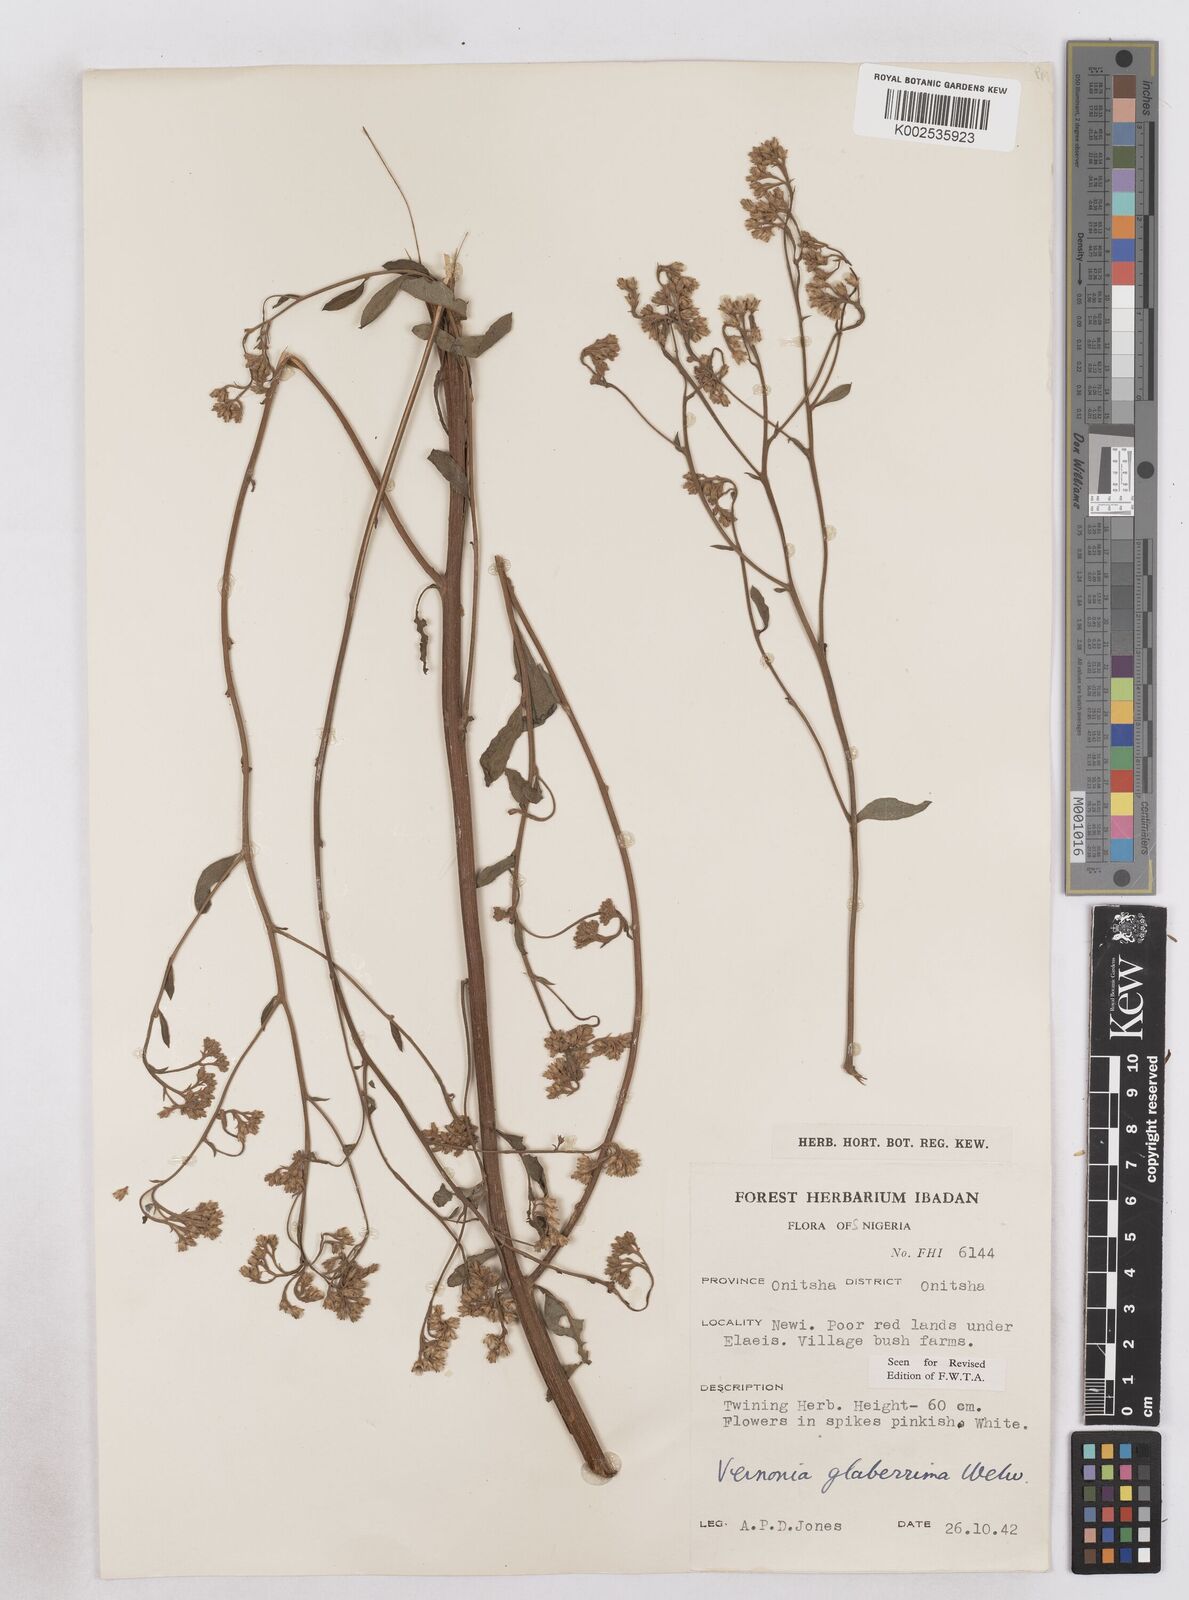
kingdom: Plantae
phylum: Tracheophyta
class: Magnoliopsida
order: Asterales
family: Asteraceae
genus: Gymnanthemum
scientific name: Gymnanthemum glaberrimum
